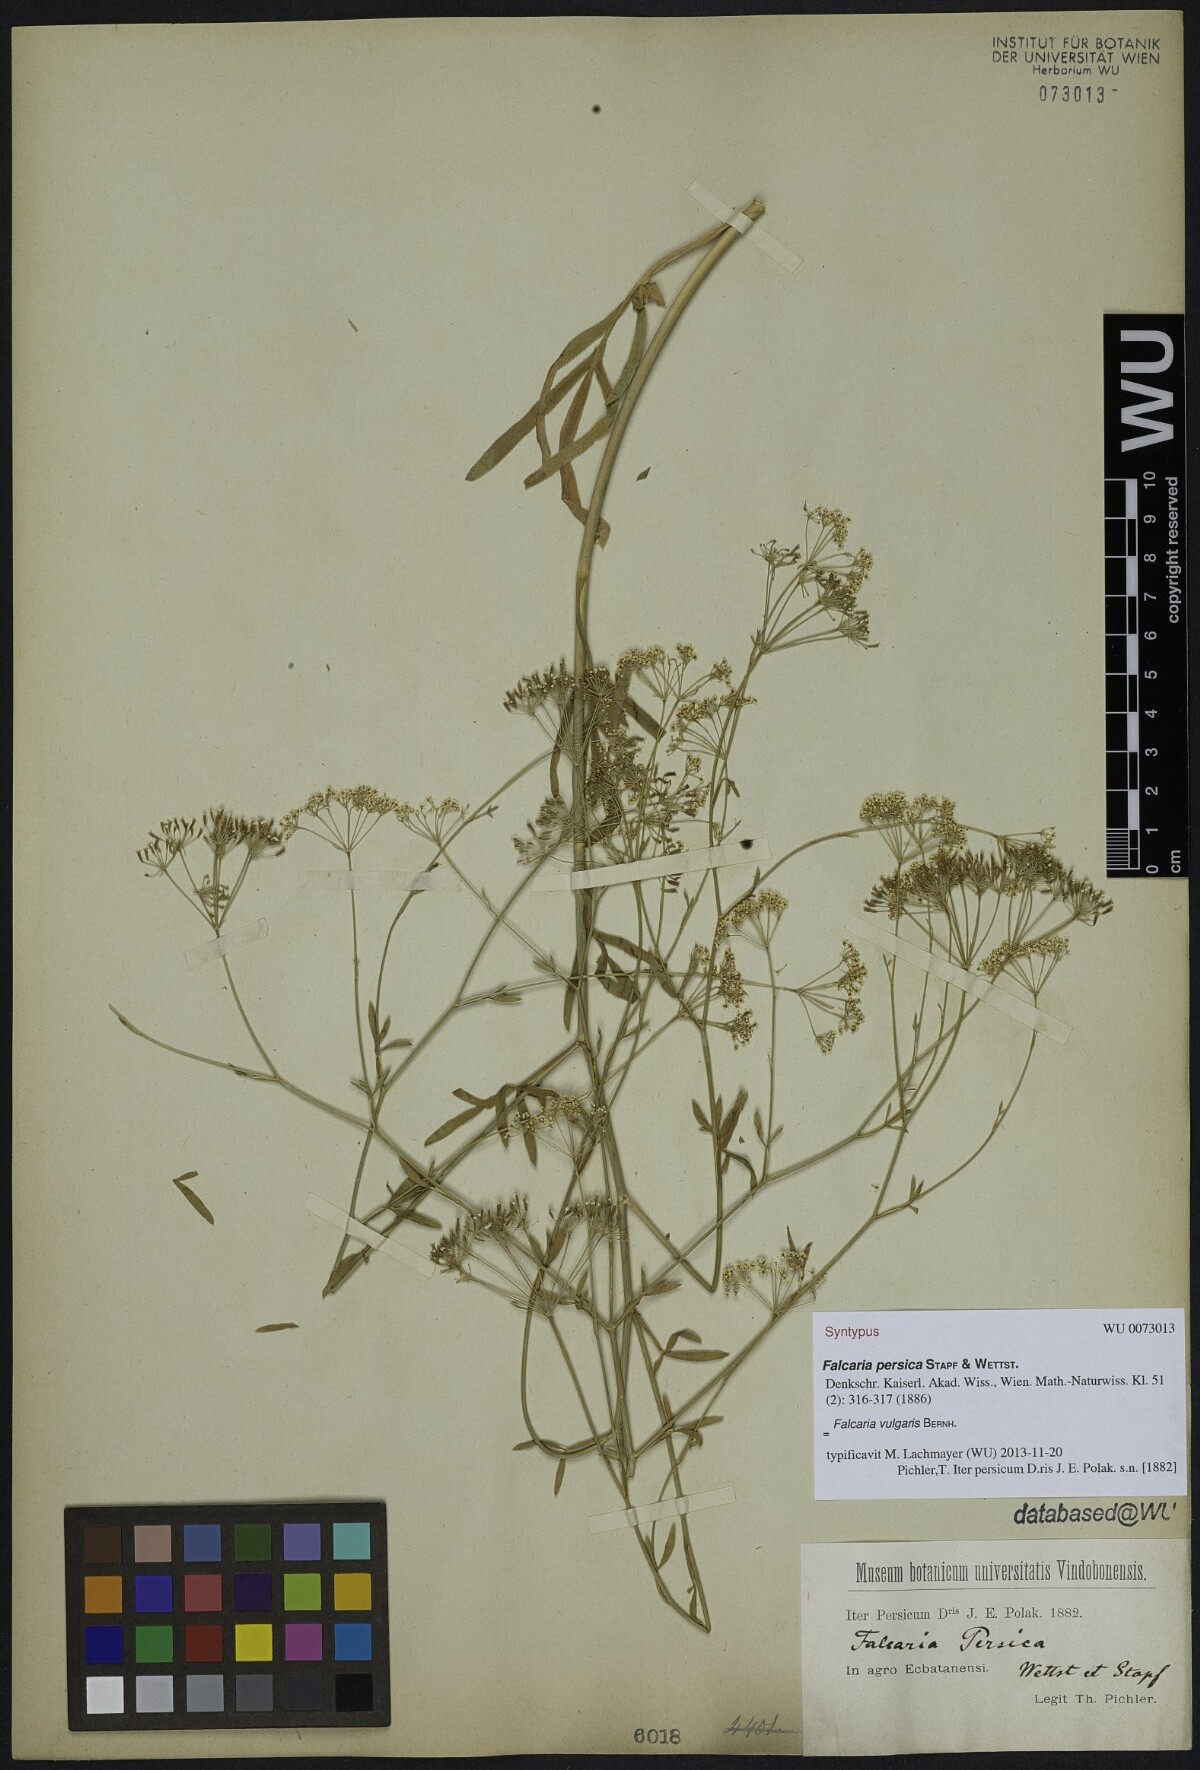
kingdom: Plantae
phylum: Tracheophyta
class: Magnoliopsida
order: Apiales
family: Apiaceae
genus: Falcaria
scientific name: Falcaria vulgaris
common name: Longleaf
